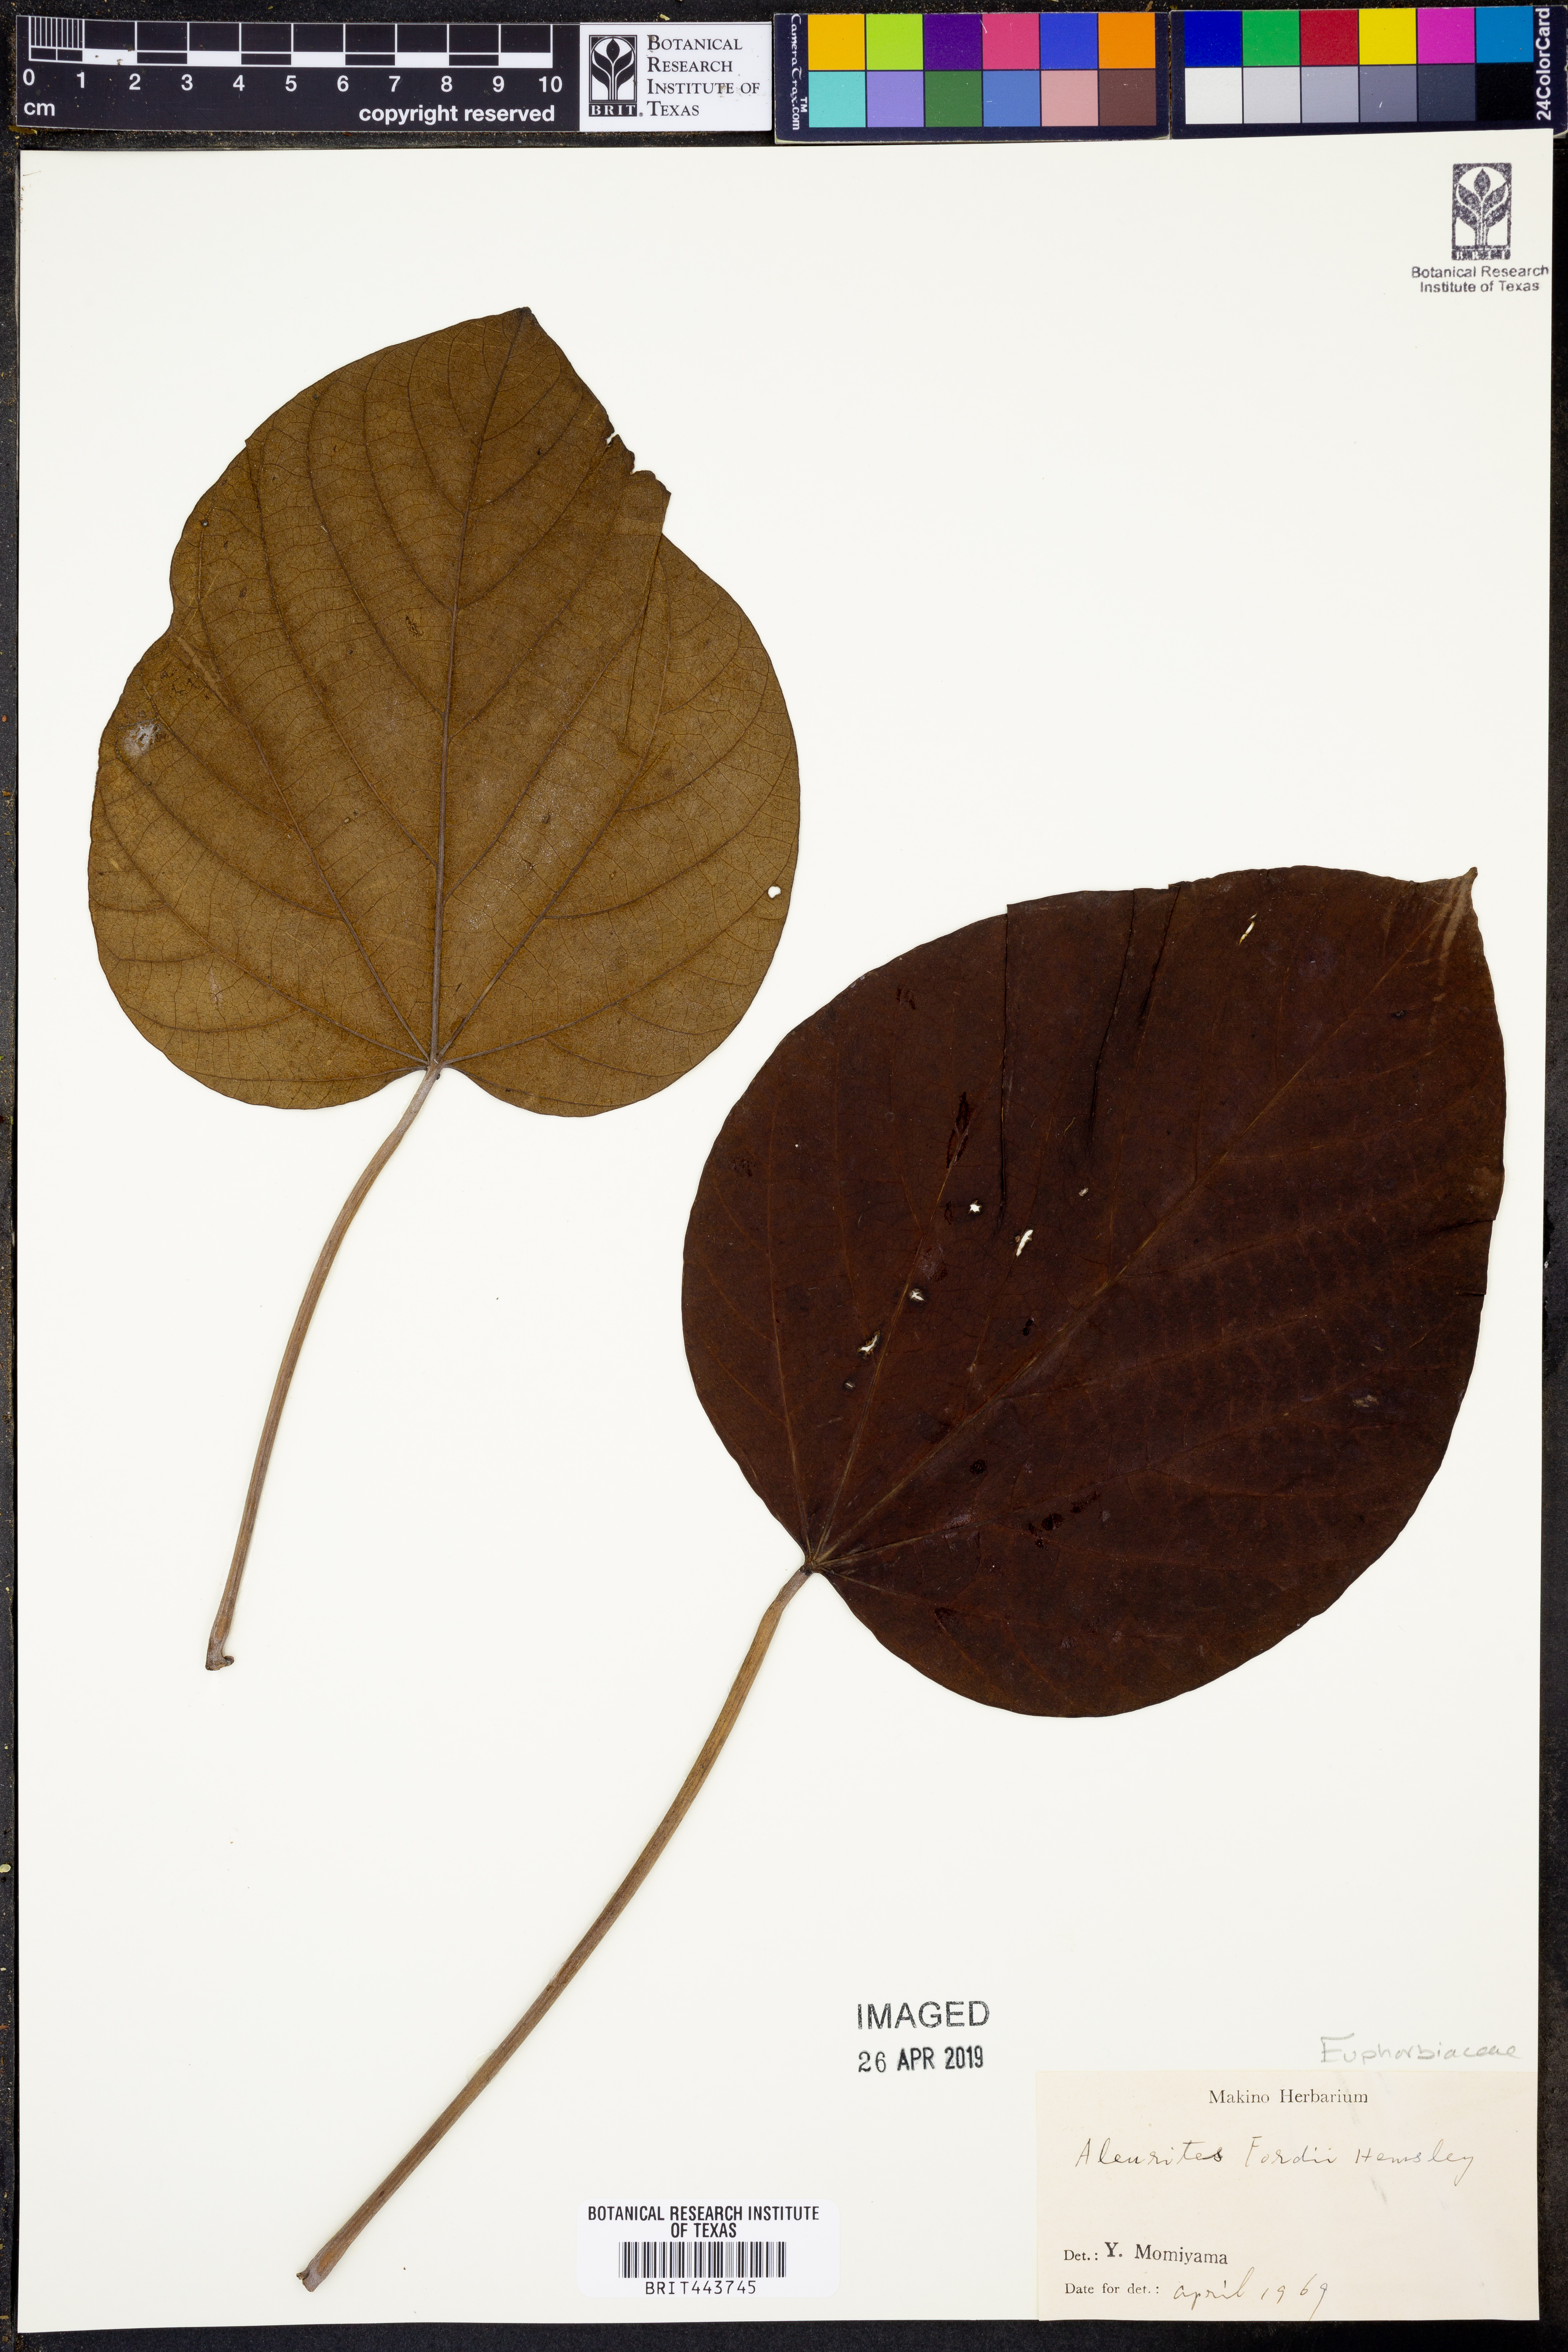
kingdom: Plantae
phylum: Tracheophyta
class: Magnoliopsida
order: Malpighiales
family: Euphorbiaceae
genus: Vernicia
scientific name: Vernicia fordii
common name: Tungoil tree
